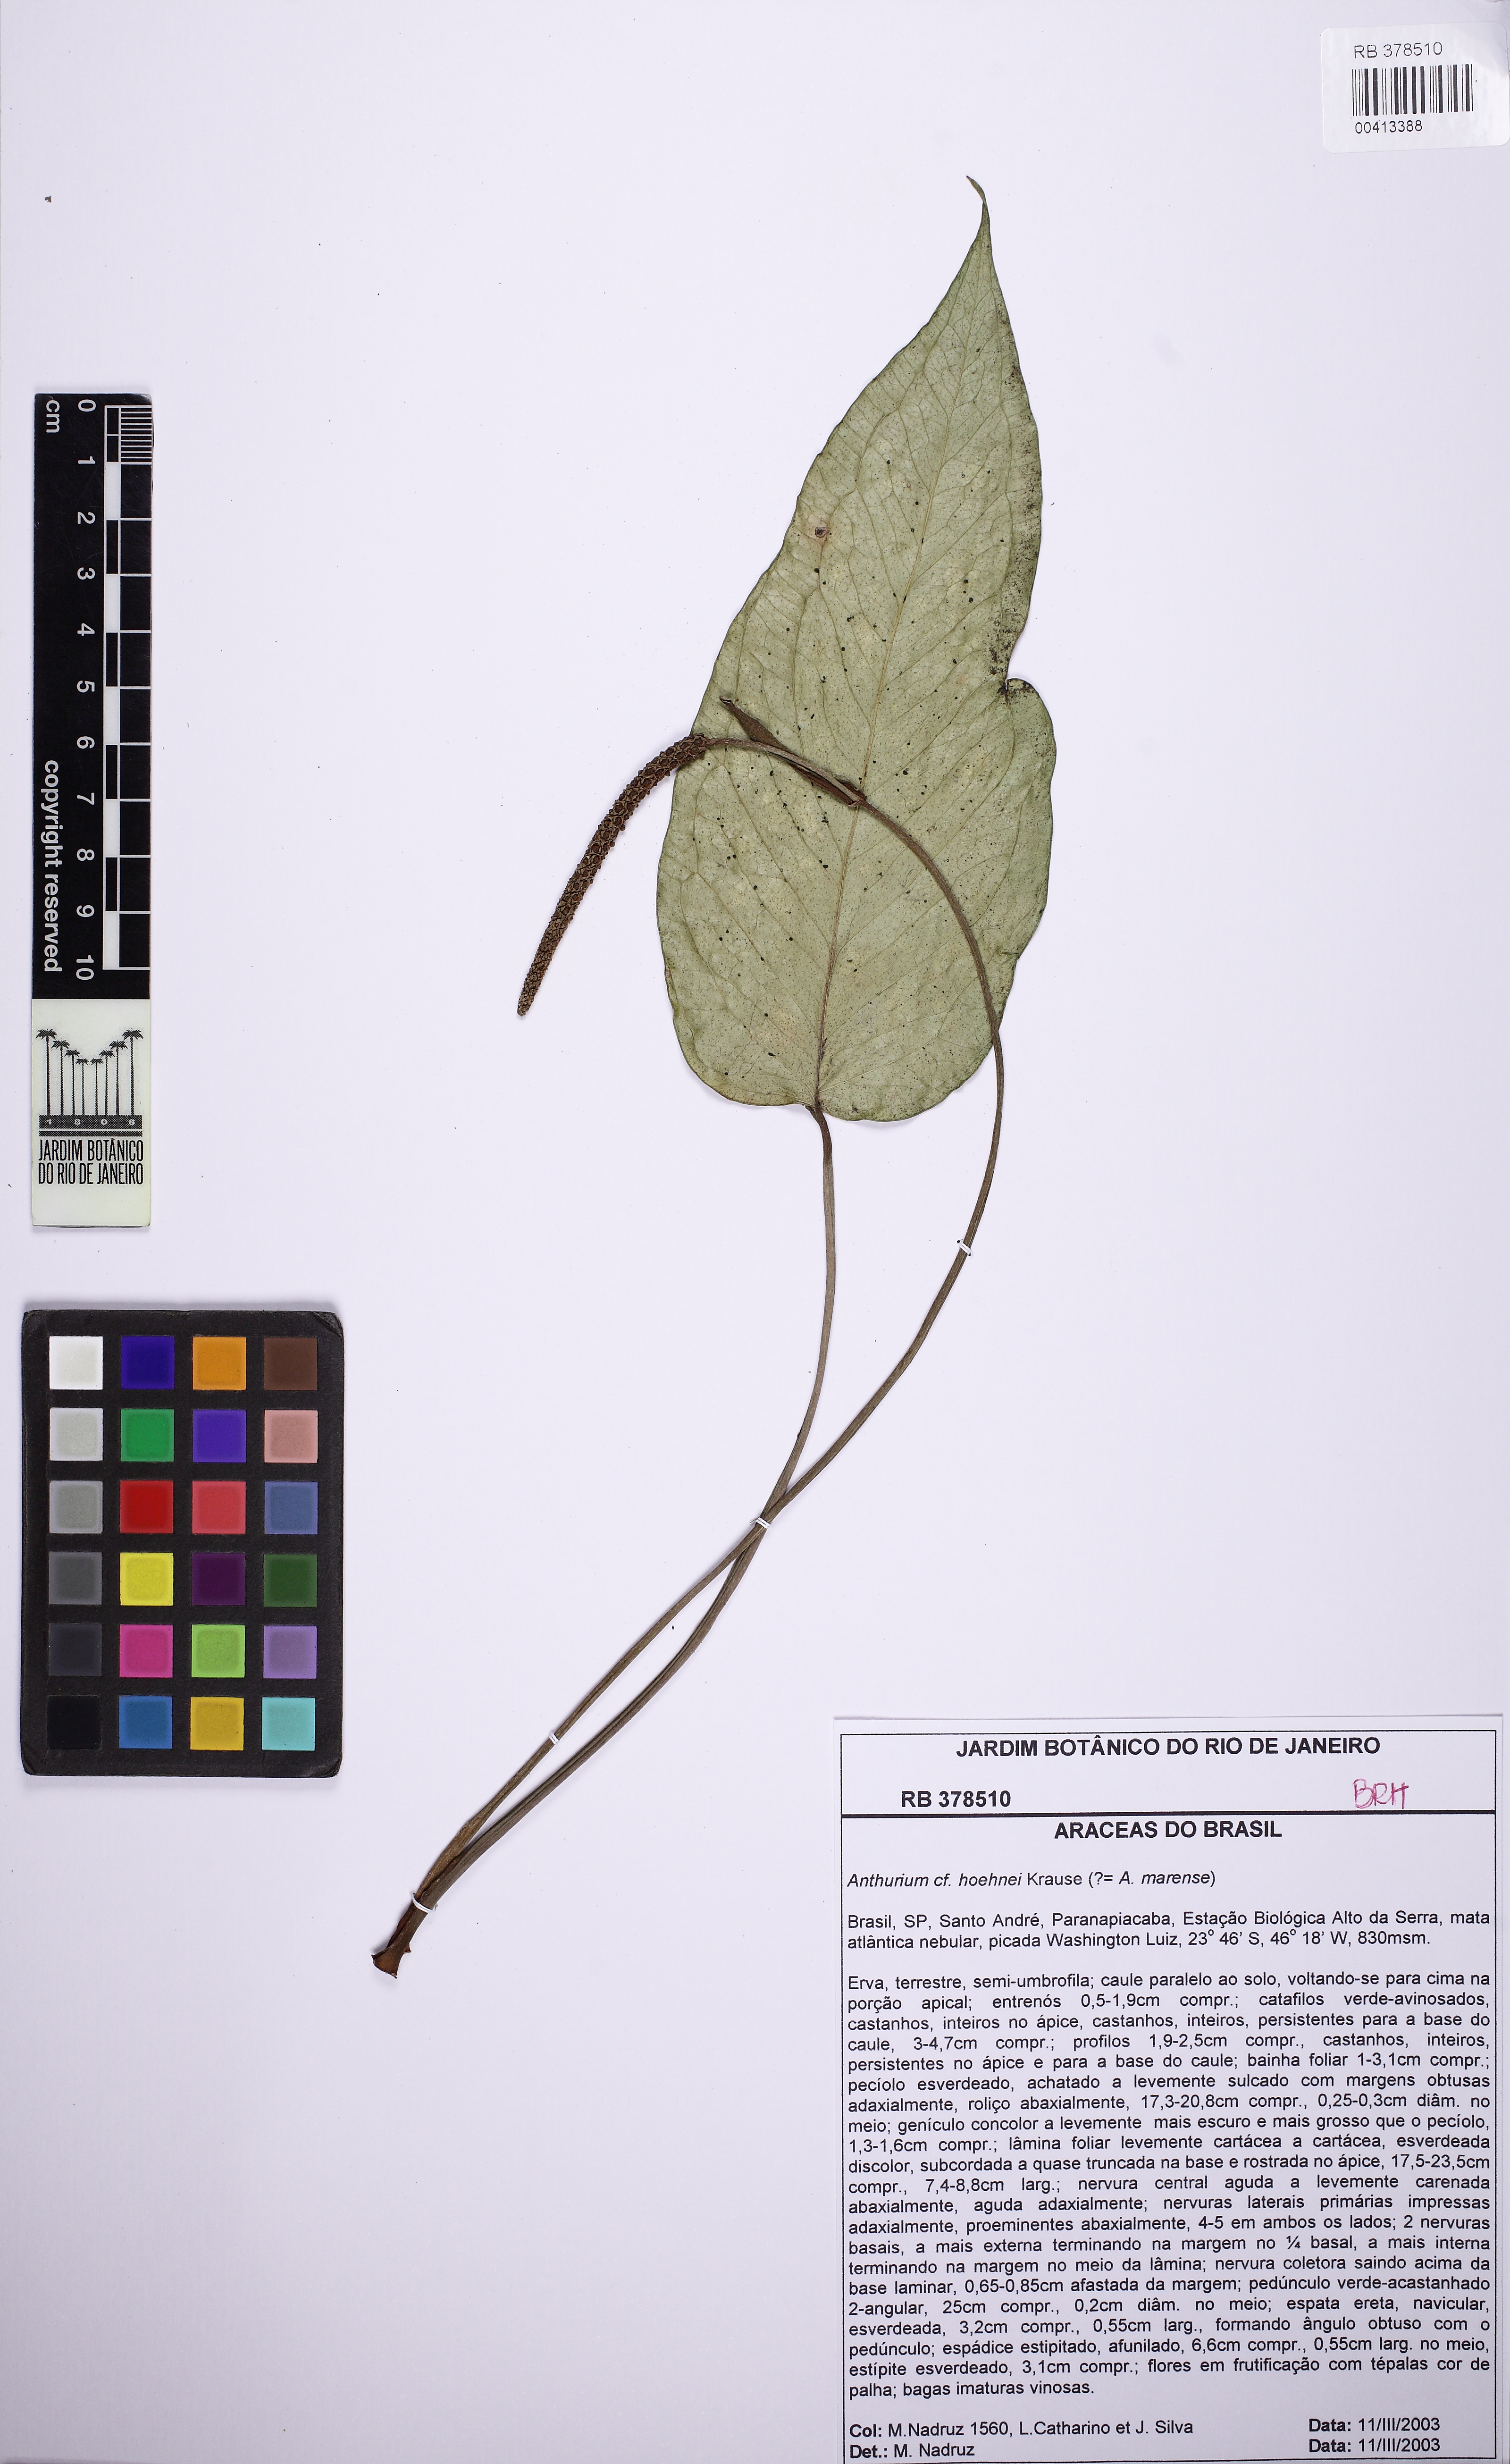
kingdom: Plantae
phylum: Tracheophyta
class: Liliopsida
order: Alismatales
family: Araceae
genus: Anthurium
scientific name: Anthurium hoehnei
